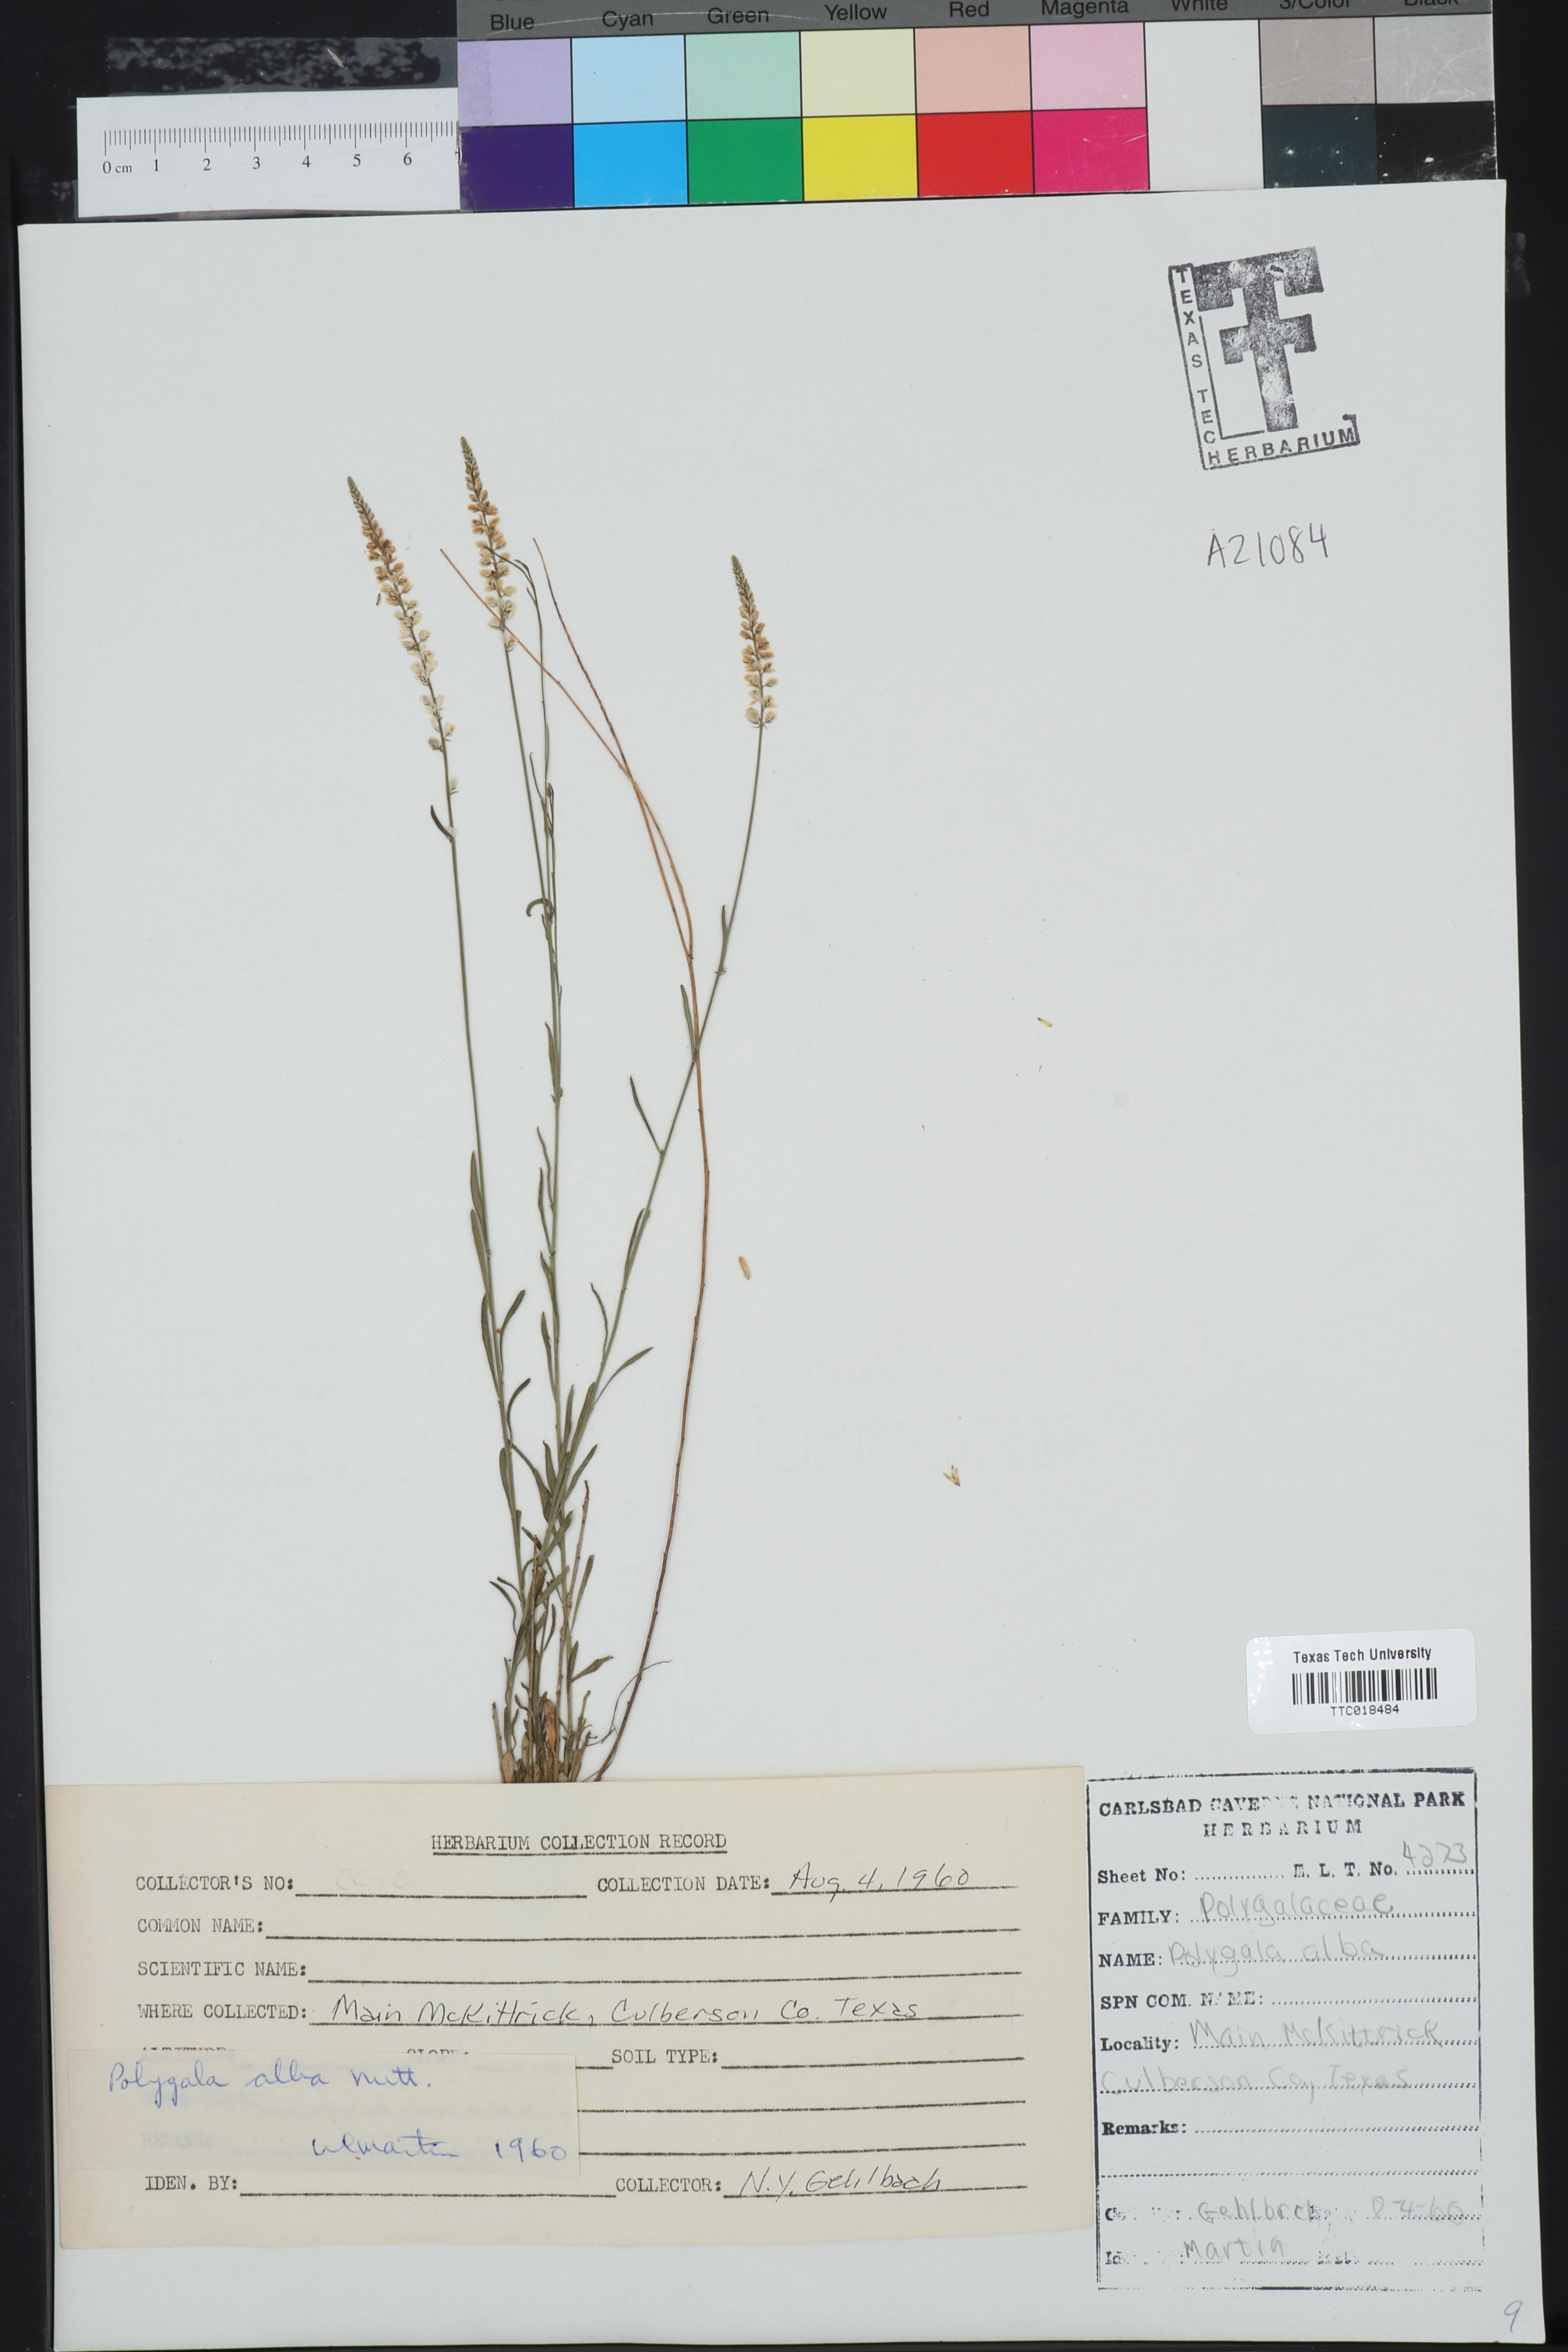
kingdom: Plantae
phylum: Tracheophyta
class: Magnoliopsida
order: Fabales
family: Polygalaceae
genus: Polygala
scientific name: Polygala alba
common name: White milkwort
